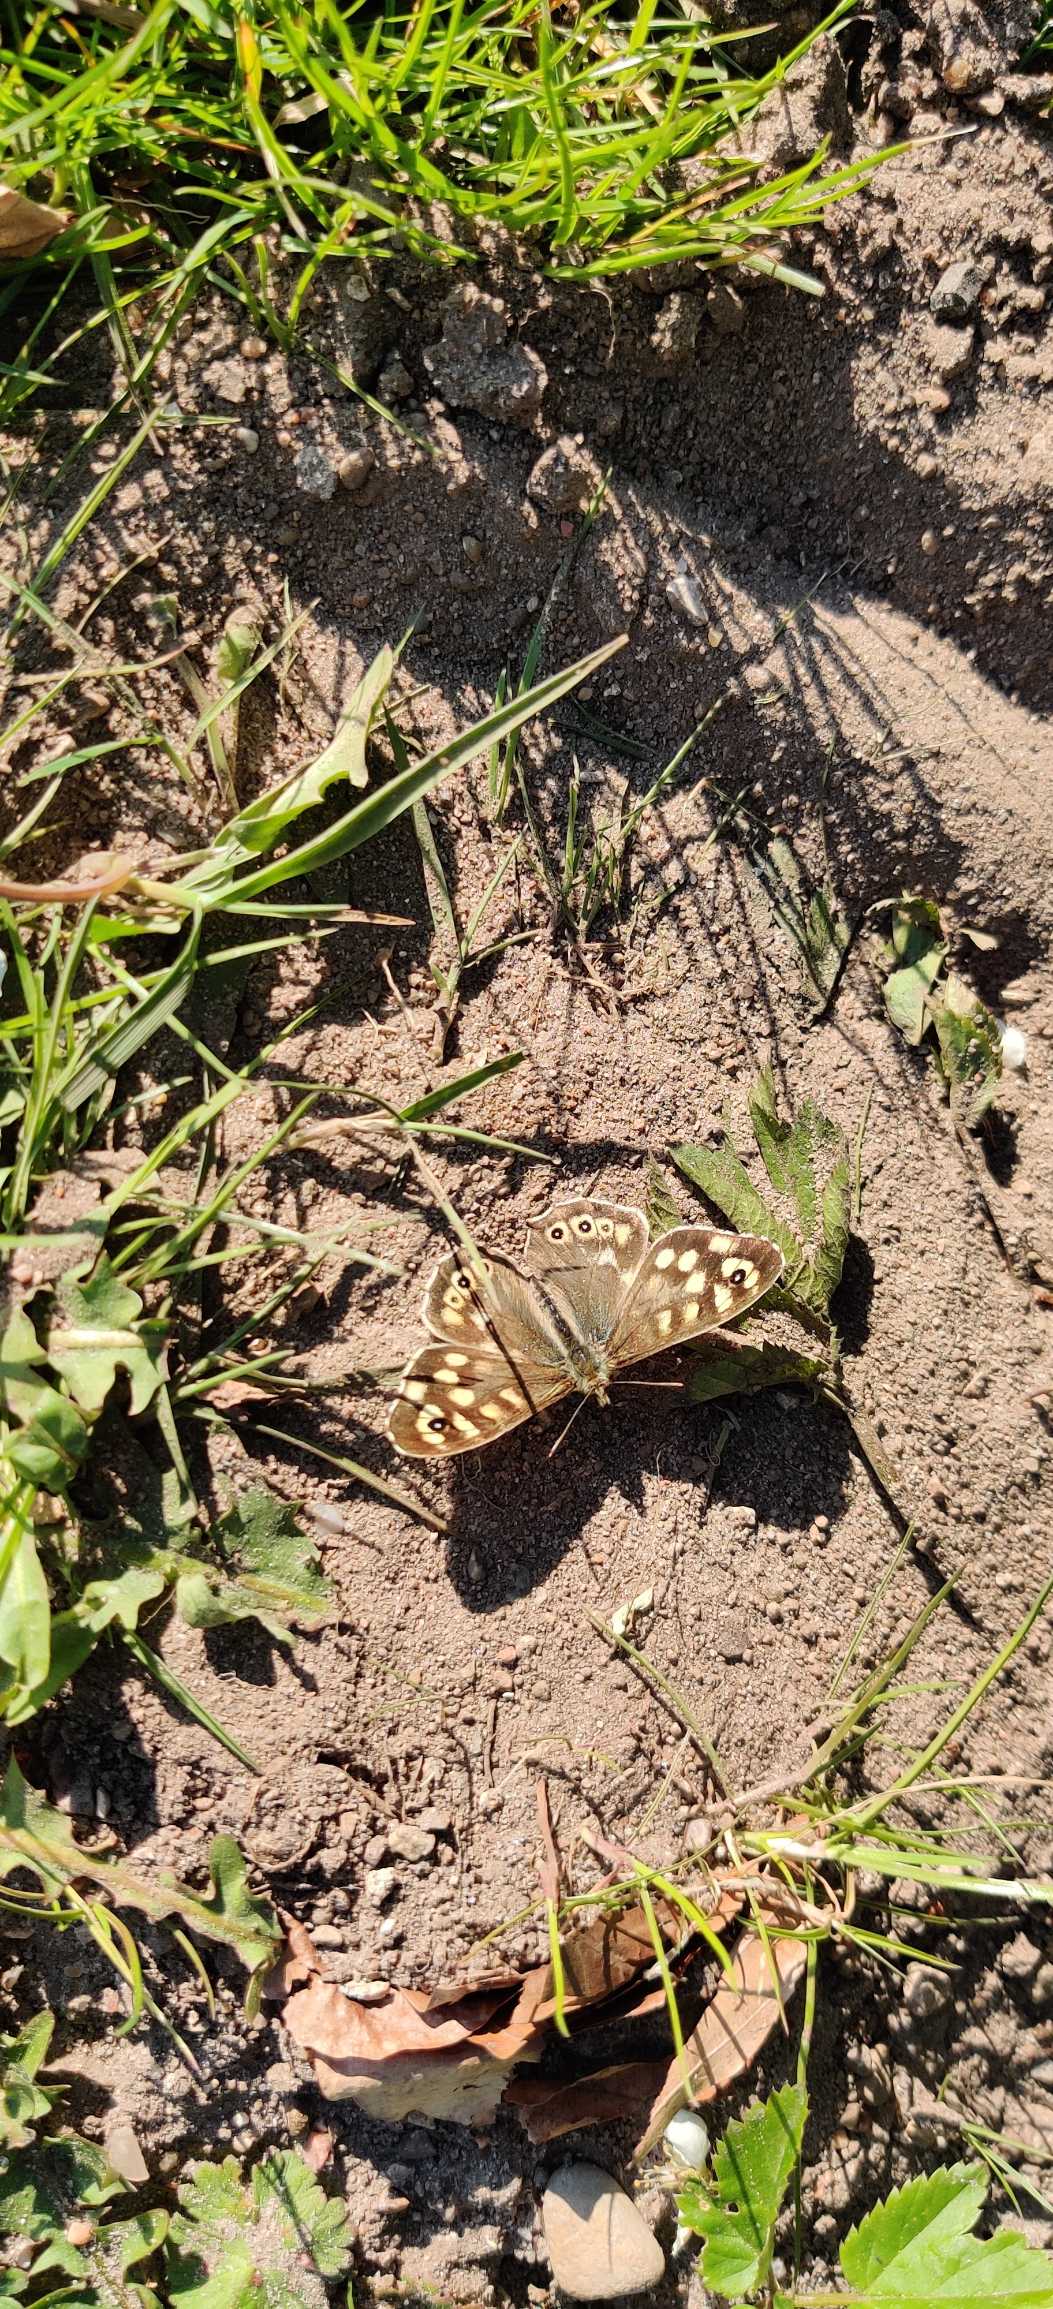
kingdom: Animalia
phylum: Arthropoda
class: Insecta
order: Lepidoptera
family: Nymphalidae
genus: Pararge
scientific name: Pararge aegeria
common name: Skovrandøje
